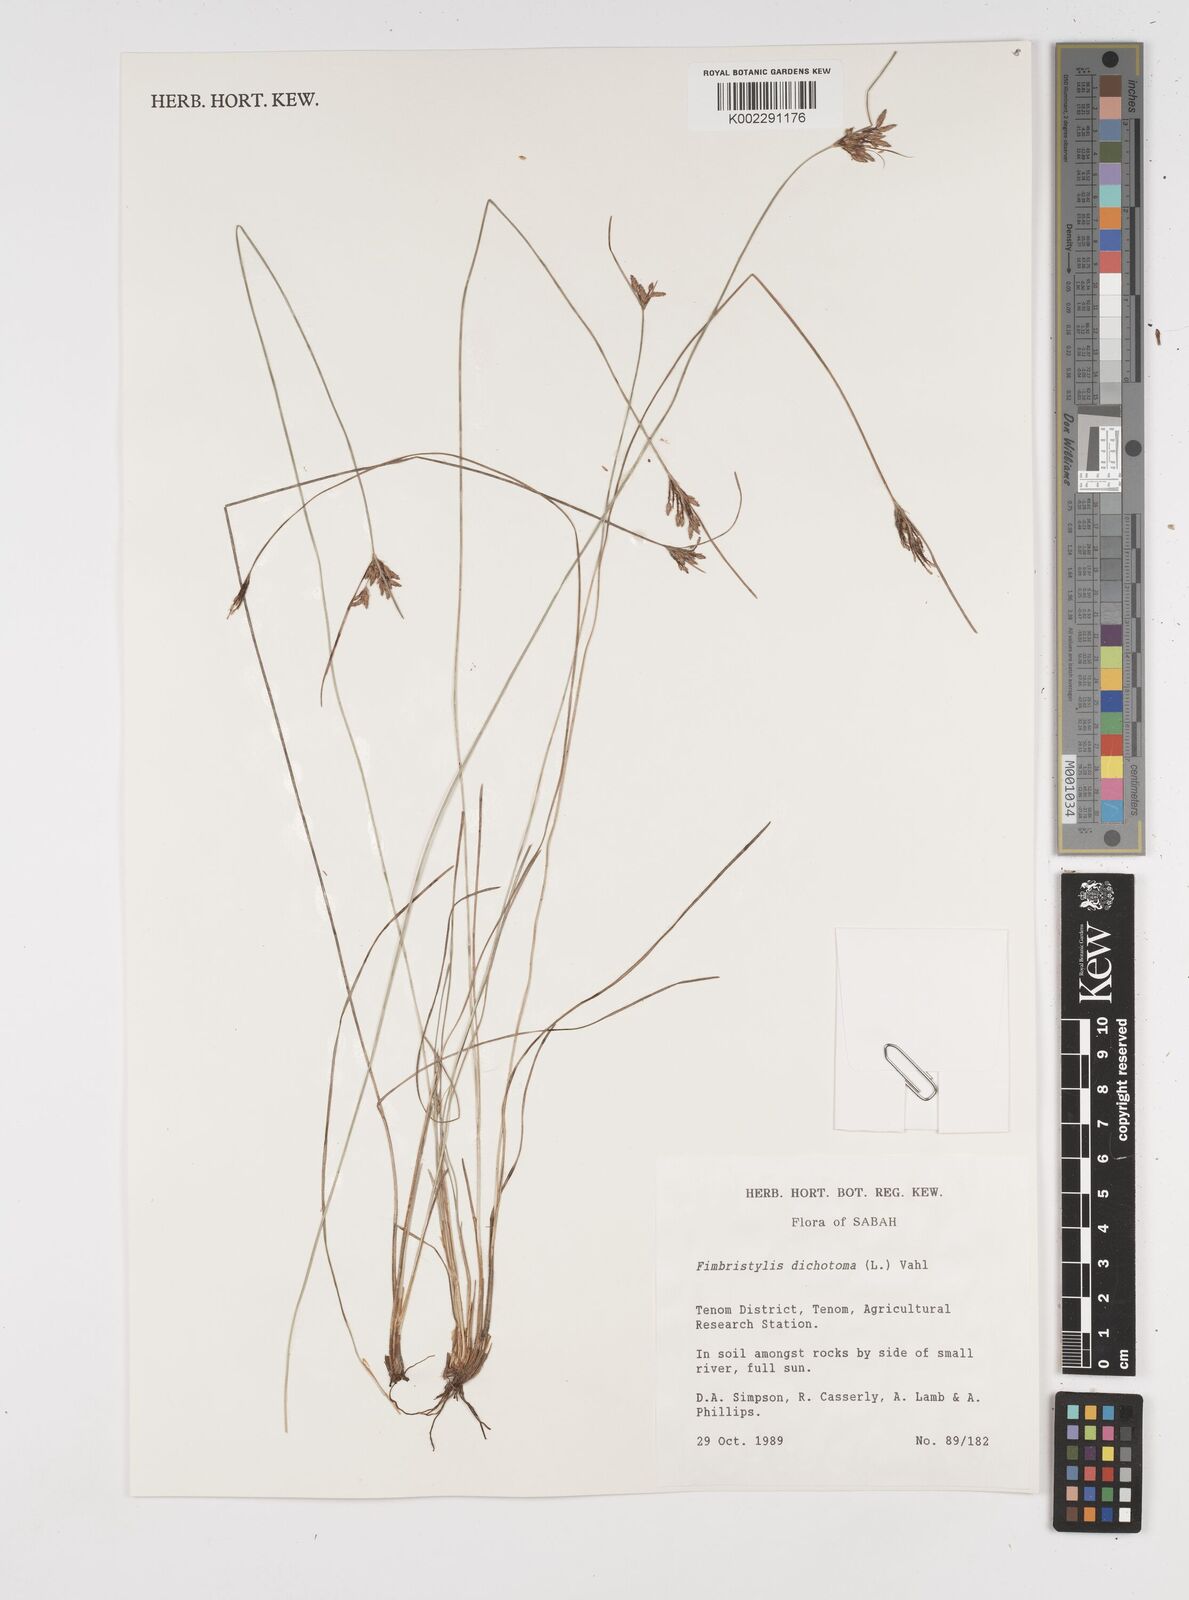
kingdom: Plantae
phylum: Tracheophyta
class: Liliopsida
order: Poales
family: Cyperaceae
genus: Fimbristylis
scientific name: Fimbristylis dichotoma
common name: Forked fimbry
